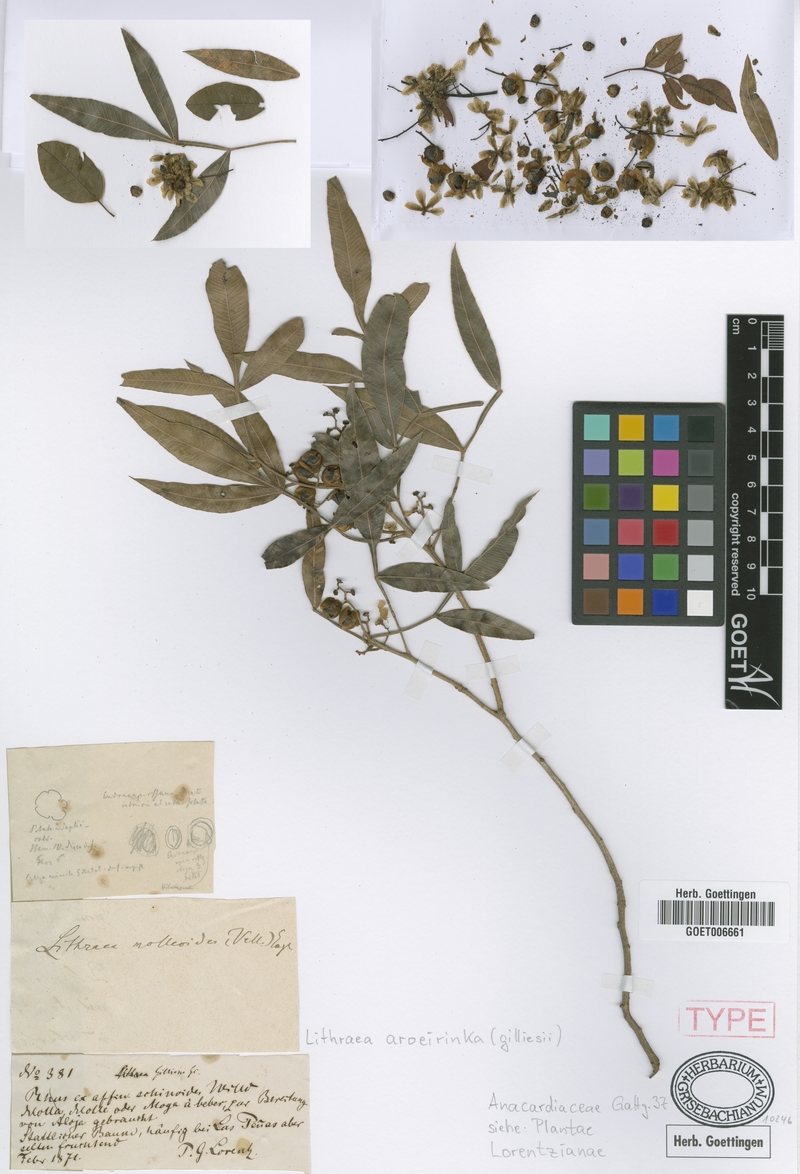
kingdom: Plantae
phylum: Tracheophyta
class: Magnoliopsida
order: Sapindales
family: Anacardiaceae
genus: Lithraea
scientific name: Lithraea molleoides
